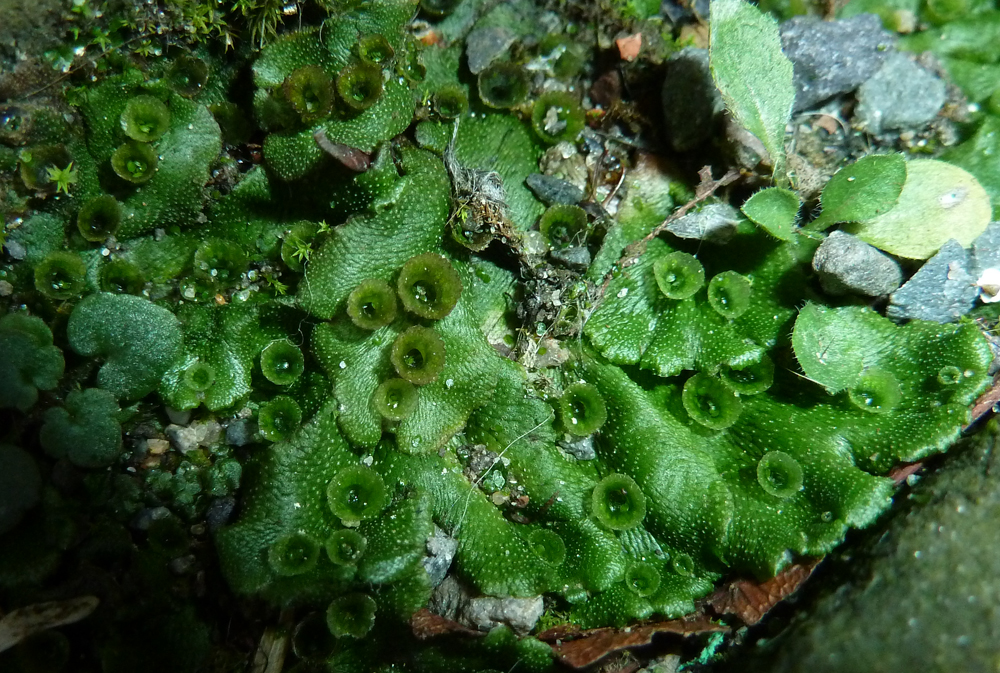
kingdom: Plantae
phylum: Marchantiophyta
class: Marchantiopsida
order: Marchantiales
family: Marchantiaceae
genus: Marchantia
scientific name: Marchantia polymorpha
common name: Common liverwort
